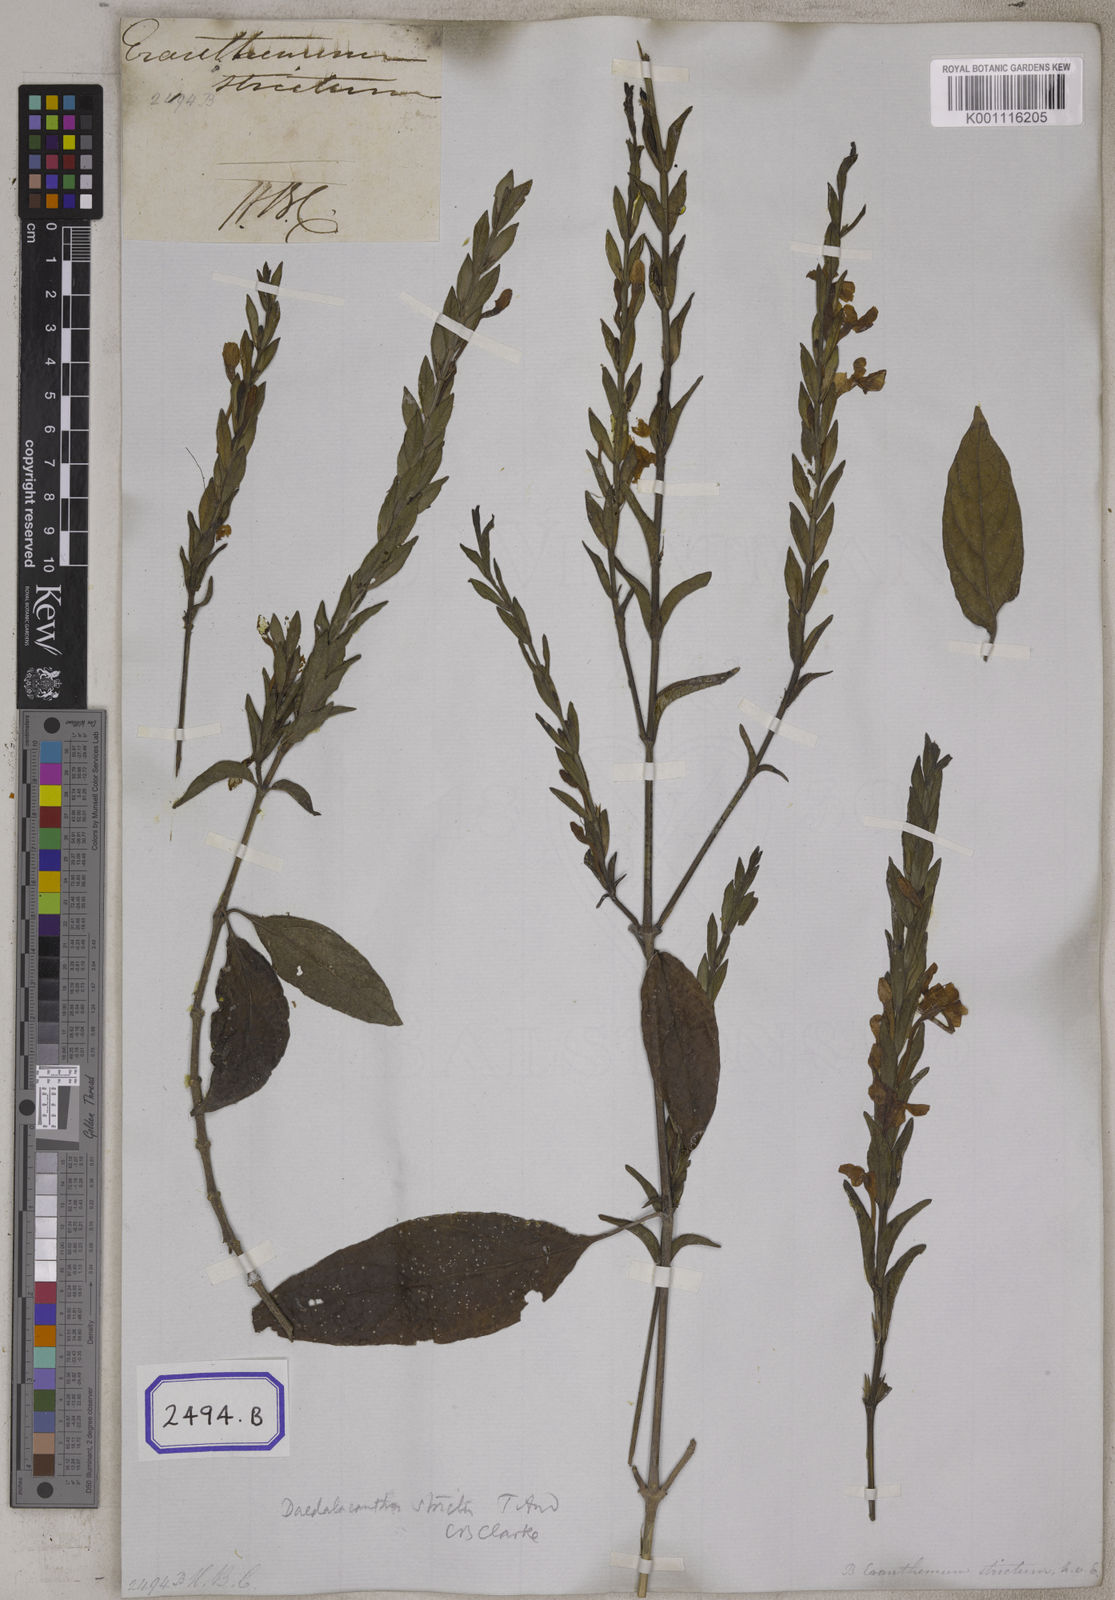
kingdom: Plantae
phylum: Tracheophyta
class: Magnoliopsida
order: Lamiales
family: Acanthaceae
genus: Eranthemum
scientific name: Eranthemum
